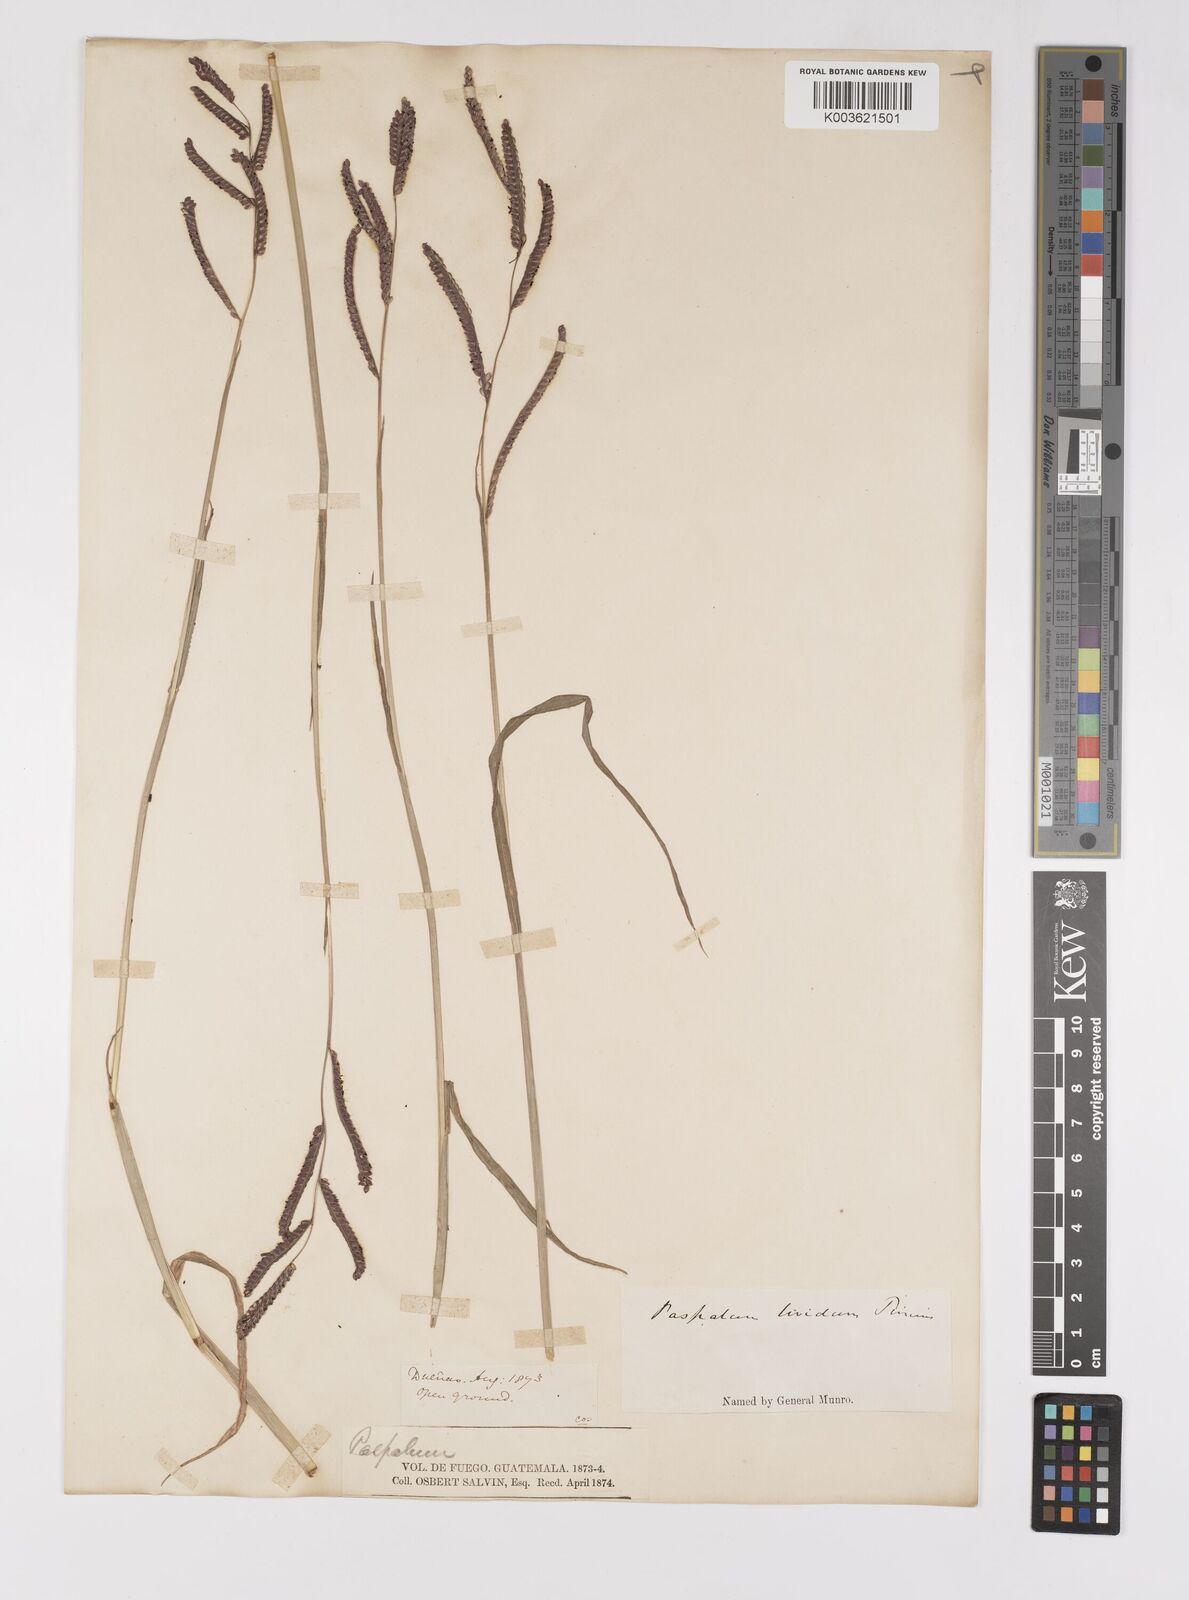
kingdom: Plantae
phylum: Tracheophyta
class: Liliopsida
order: Poales
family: Poaceae
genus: Paspalum
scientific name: Paspalum denticulatum
